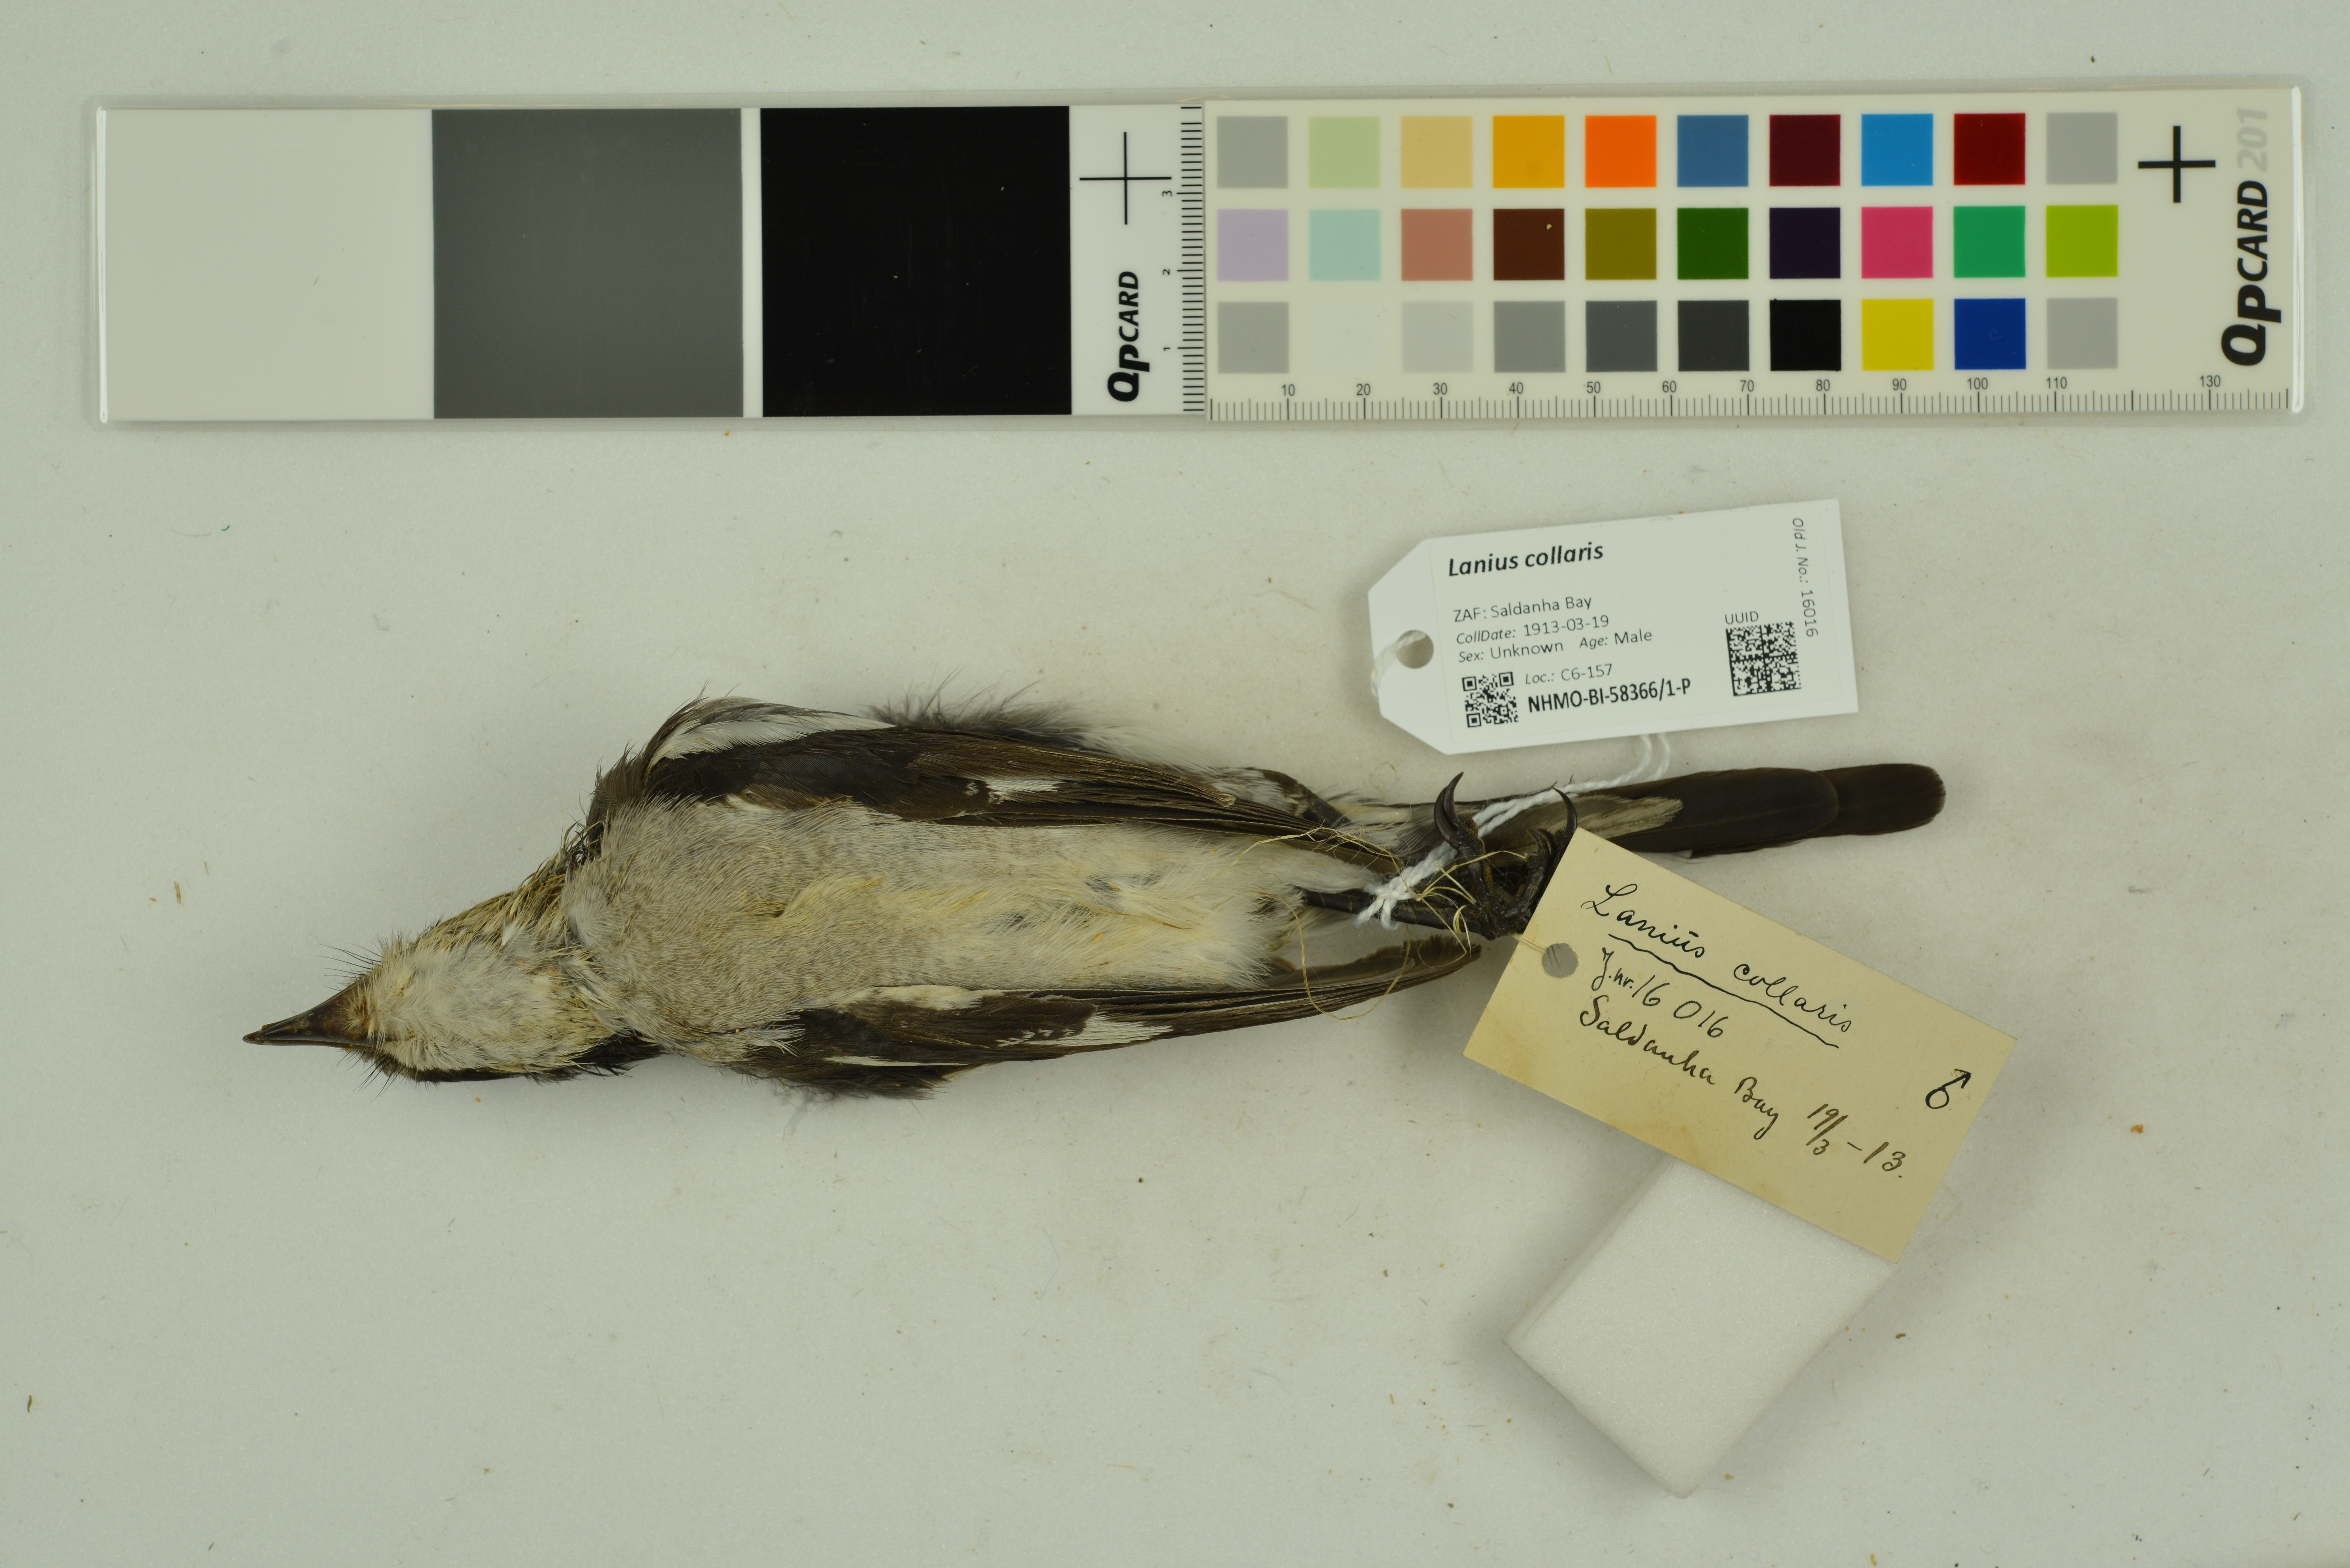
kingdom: Animalia
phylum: Chordata
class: Aves
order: Passeriformes
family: Laniidae
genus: Lanius
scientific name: Lanius collaris
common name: Southern fiscal
